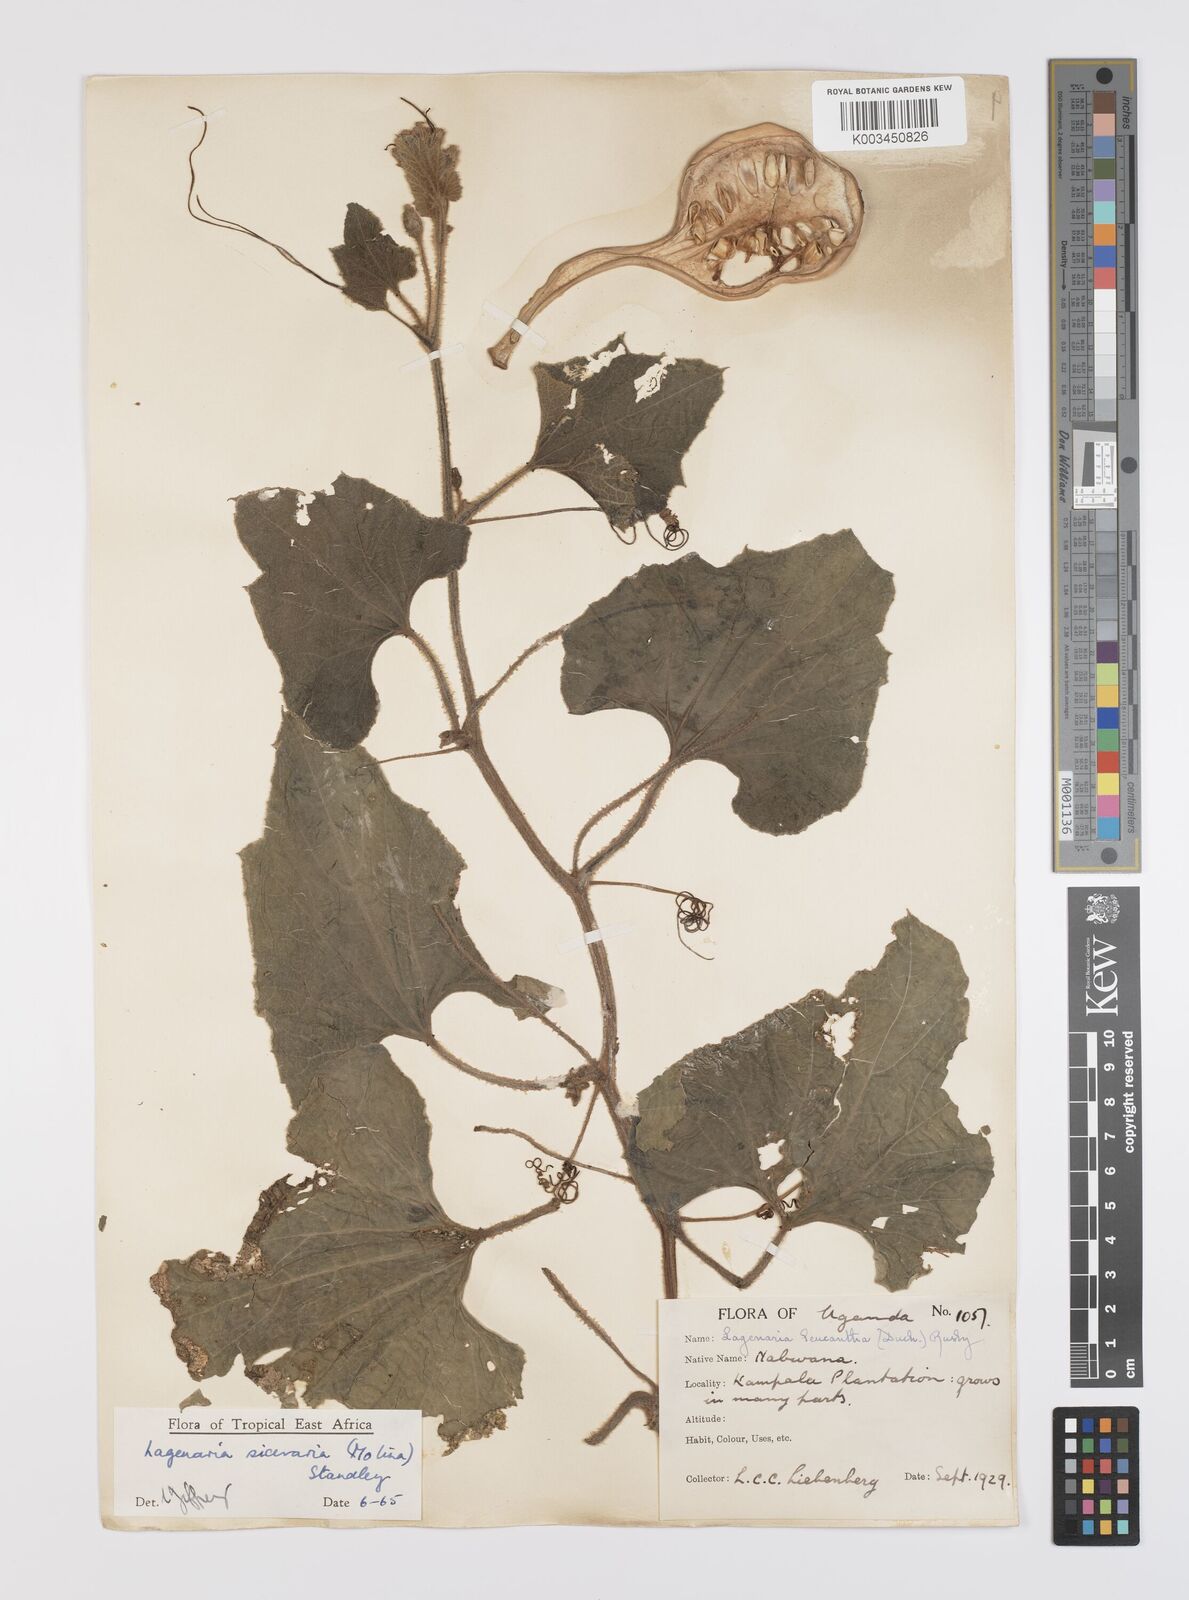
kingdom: Plantae
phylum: Tracheophyta
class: Magnoliopsida
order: Cucurbitales
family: Cucurbitaceae
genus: Lagenaria
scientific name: Lagenaria siceraria
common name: Bottle gourd
